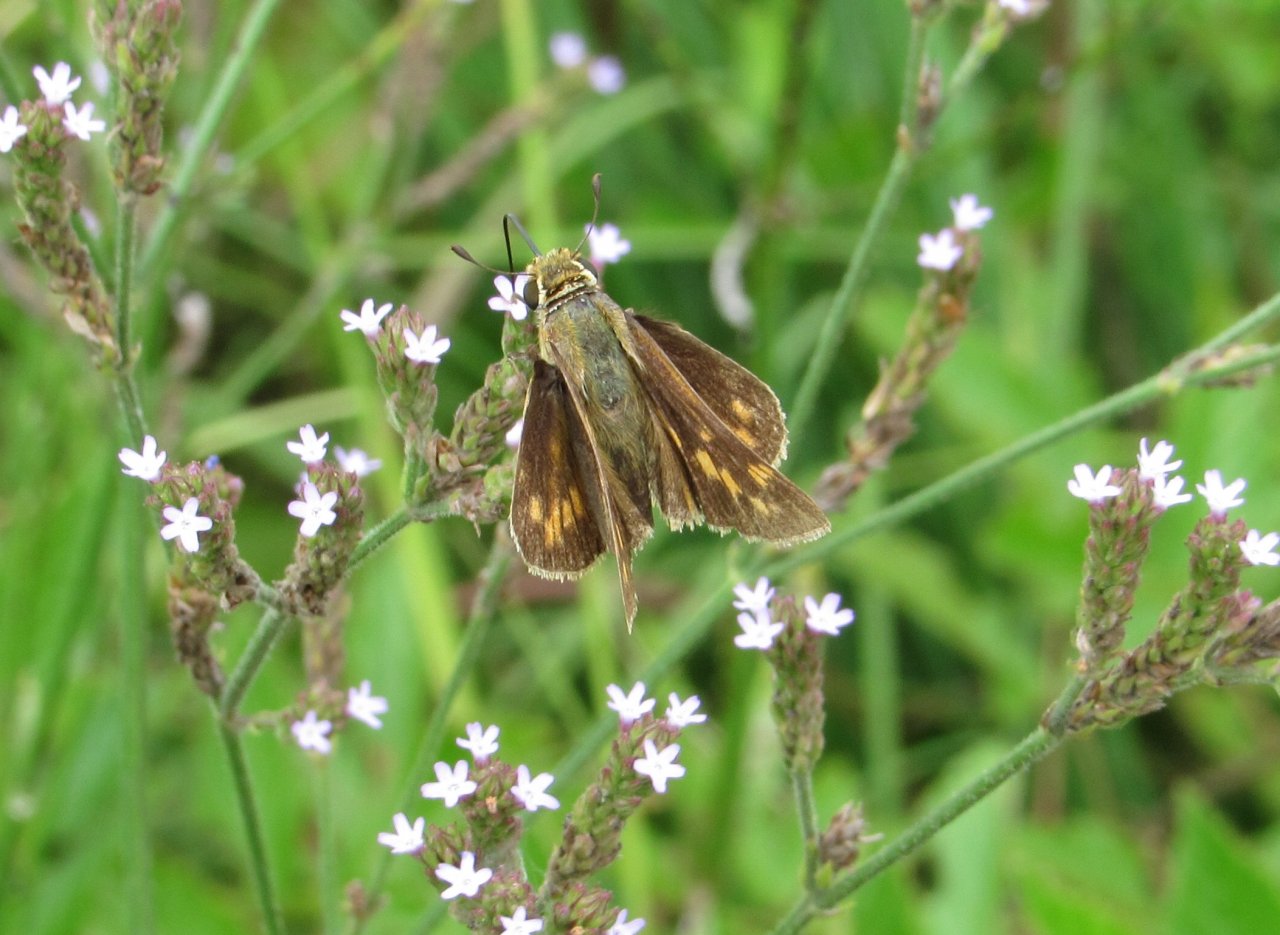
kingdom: Animalia
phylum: Arthropoda
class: Insecta
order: Lepidoptera
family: Hesperiidae
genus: Hylephila
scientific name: Hylephila phyleus
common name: Fiery Skipper
